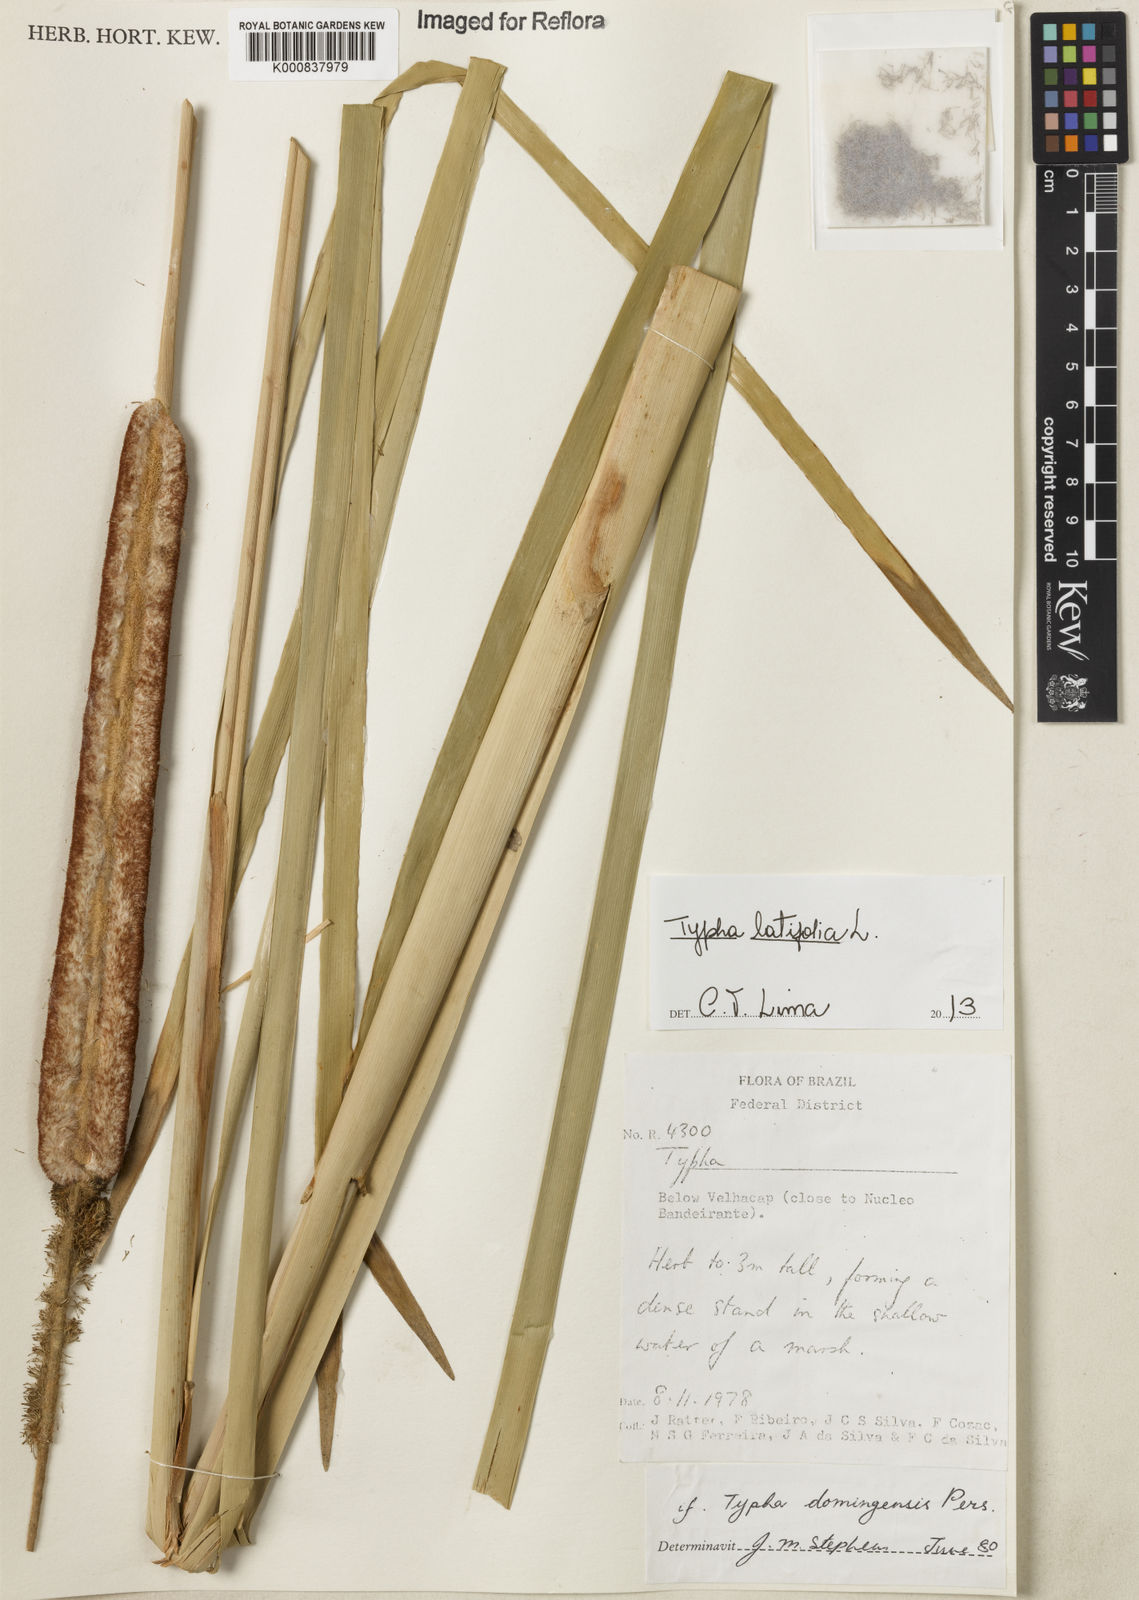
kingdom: Plantae
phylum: Tracheophyta
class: Liliopsida
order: Poales
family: Typhaceae
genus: Typha
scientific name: Typha latifolia
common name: Broadleaf cattail
